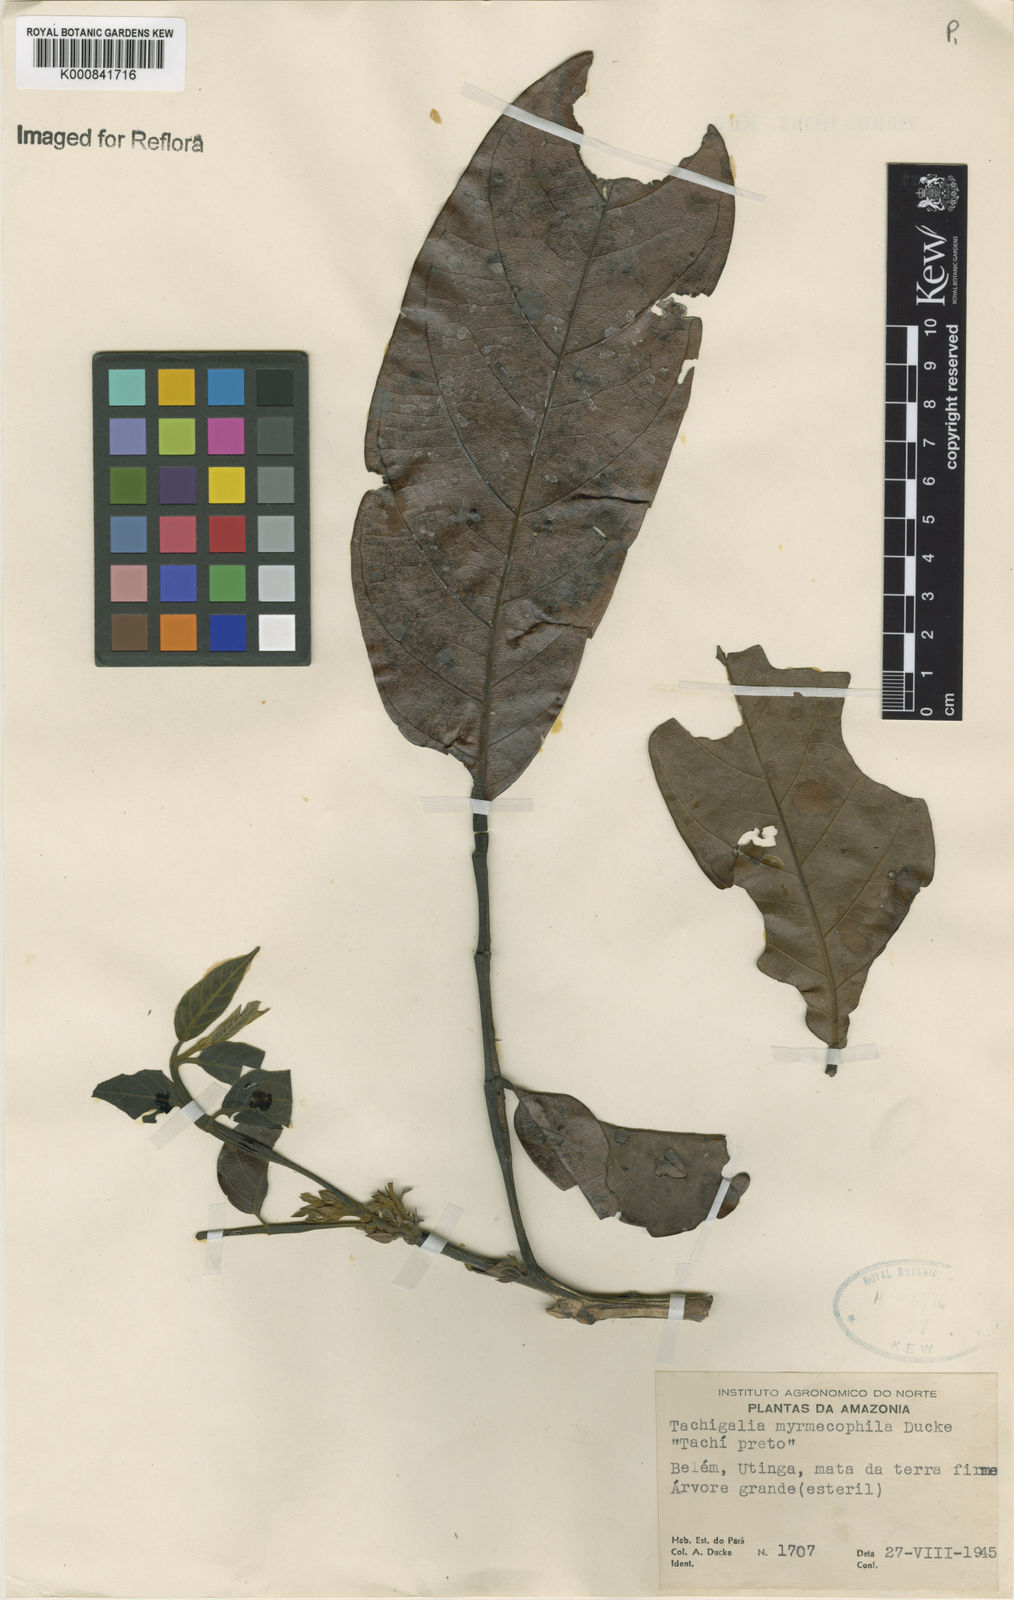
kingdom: Plantae
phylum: Tracheophyta
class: Magnoliopsida
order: Fabales
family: Fabaceae
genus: Tachigali
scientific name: Tachigali glauca
